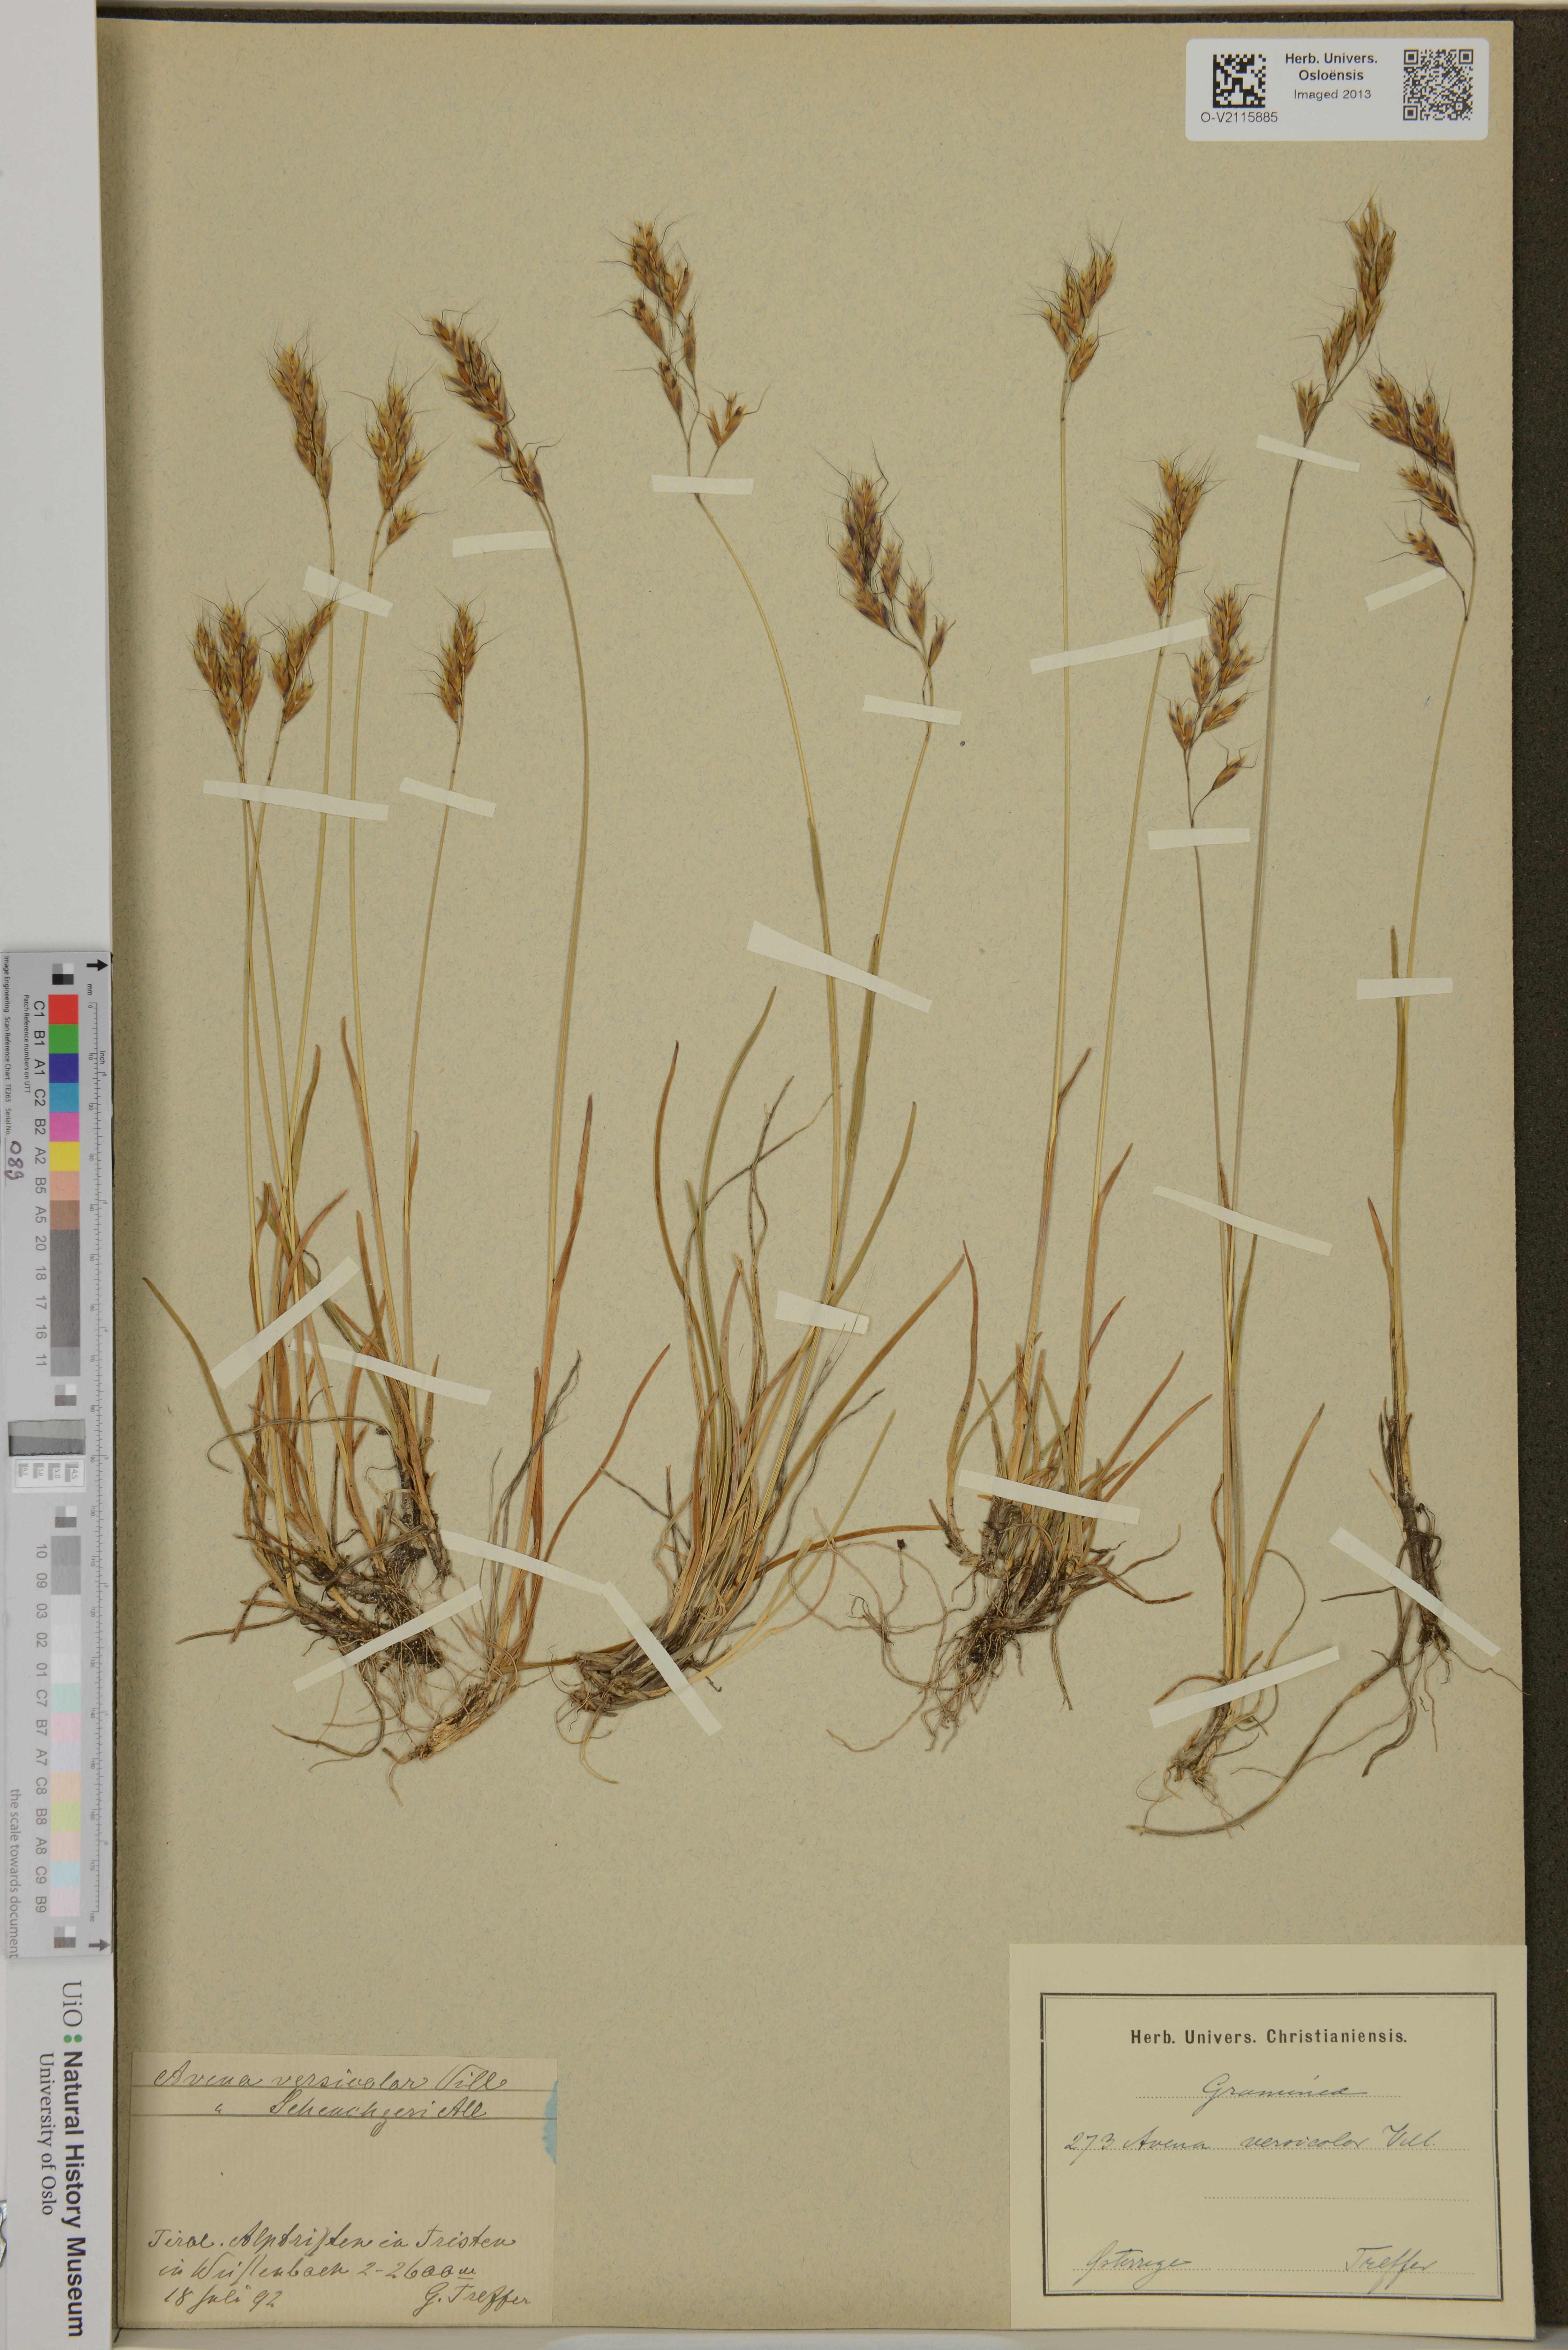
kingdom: Plantae
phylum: Tracheophyta
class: Liliopsida
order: Poales
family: Poaceae
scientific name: Poaceae
